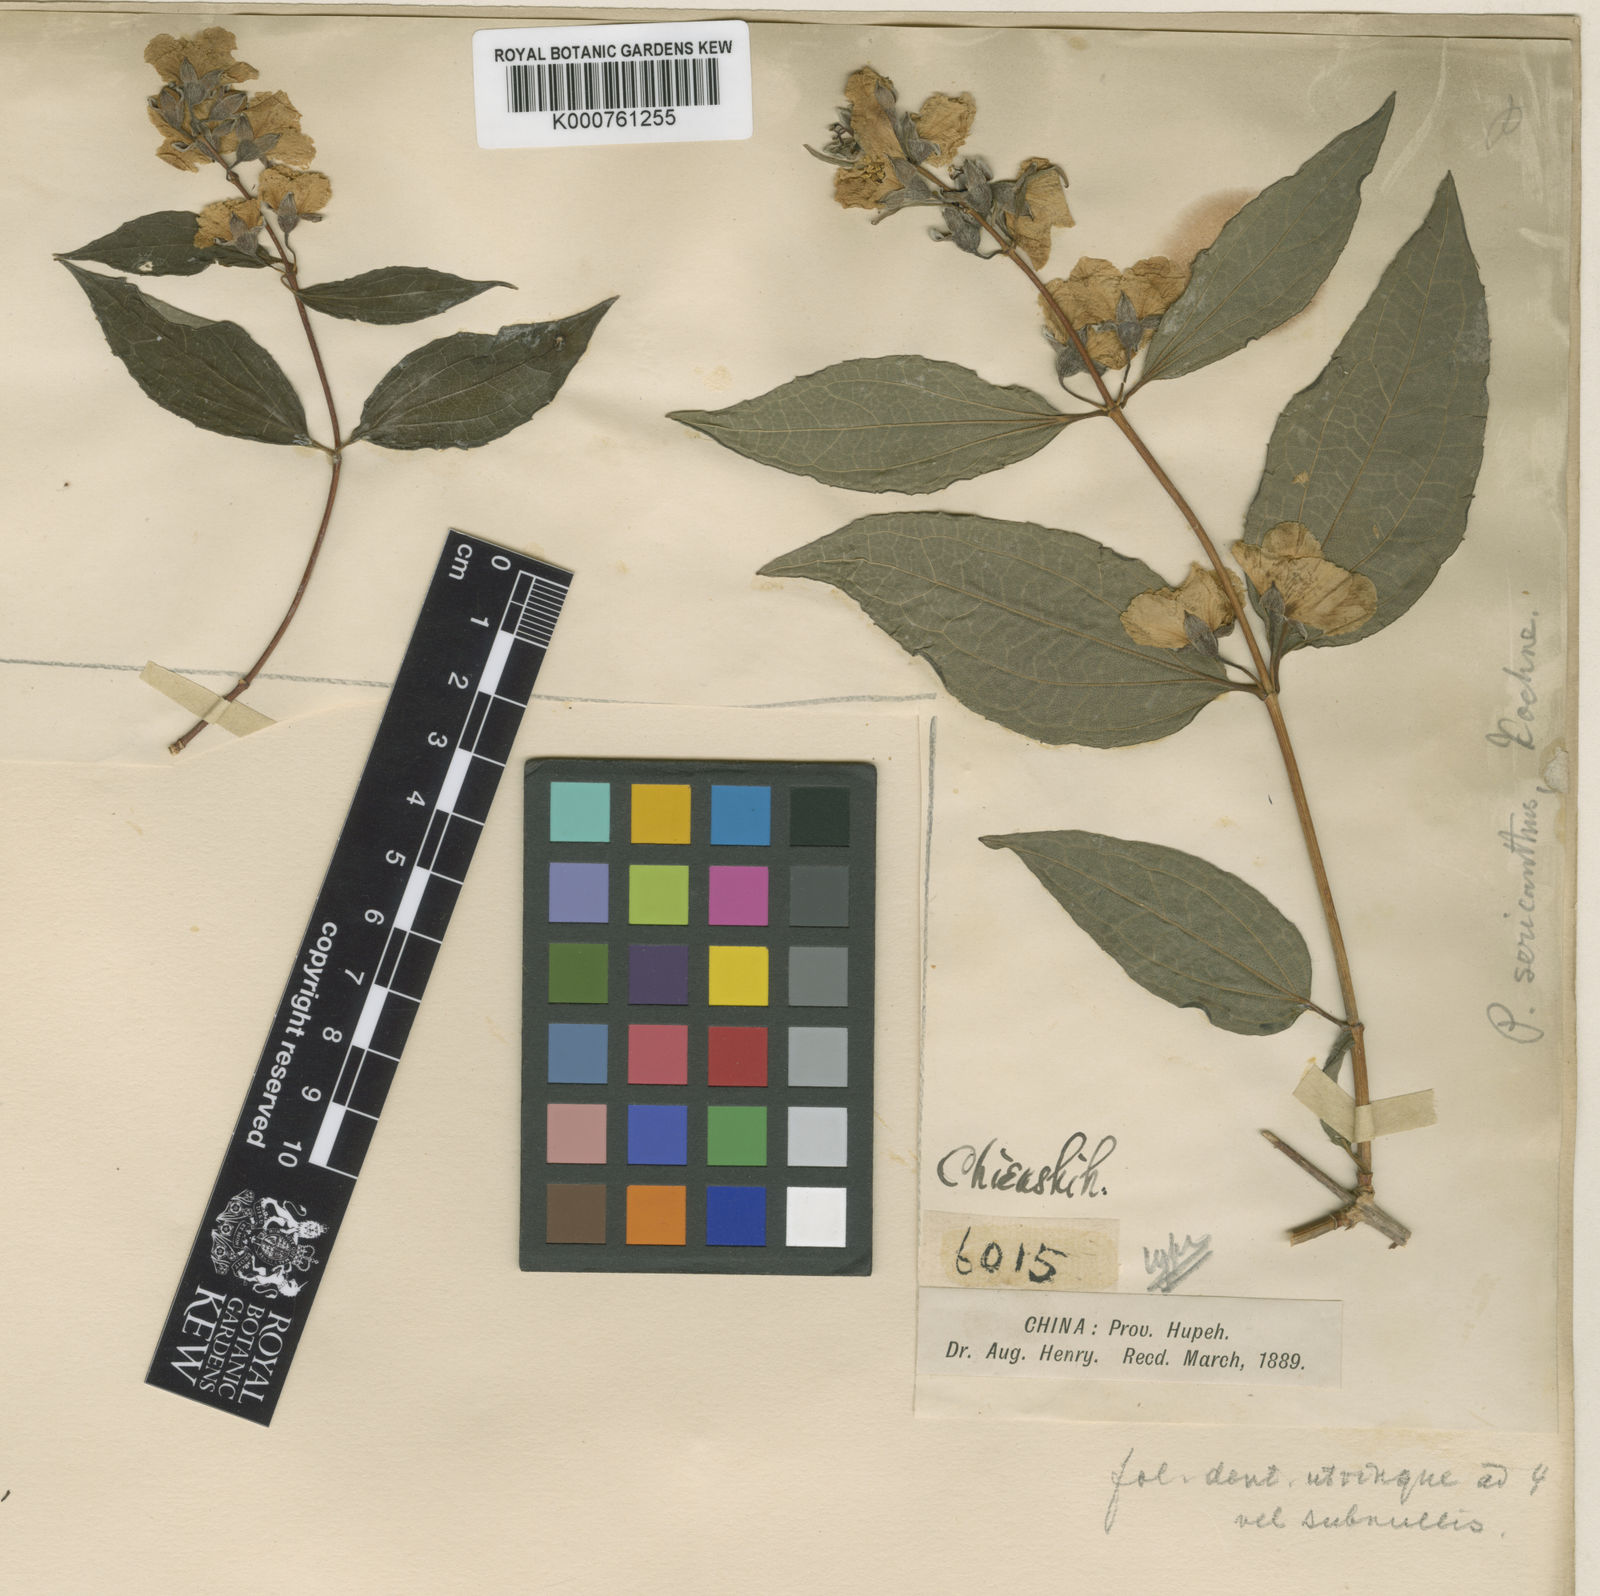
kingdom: Plantae
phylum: Tracheophyta
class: Magnoliopsida
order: Cornales
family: Hydrangeaceae
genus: Philadelphus
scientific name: Philadelphus sericanthus
